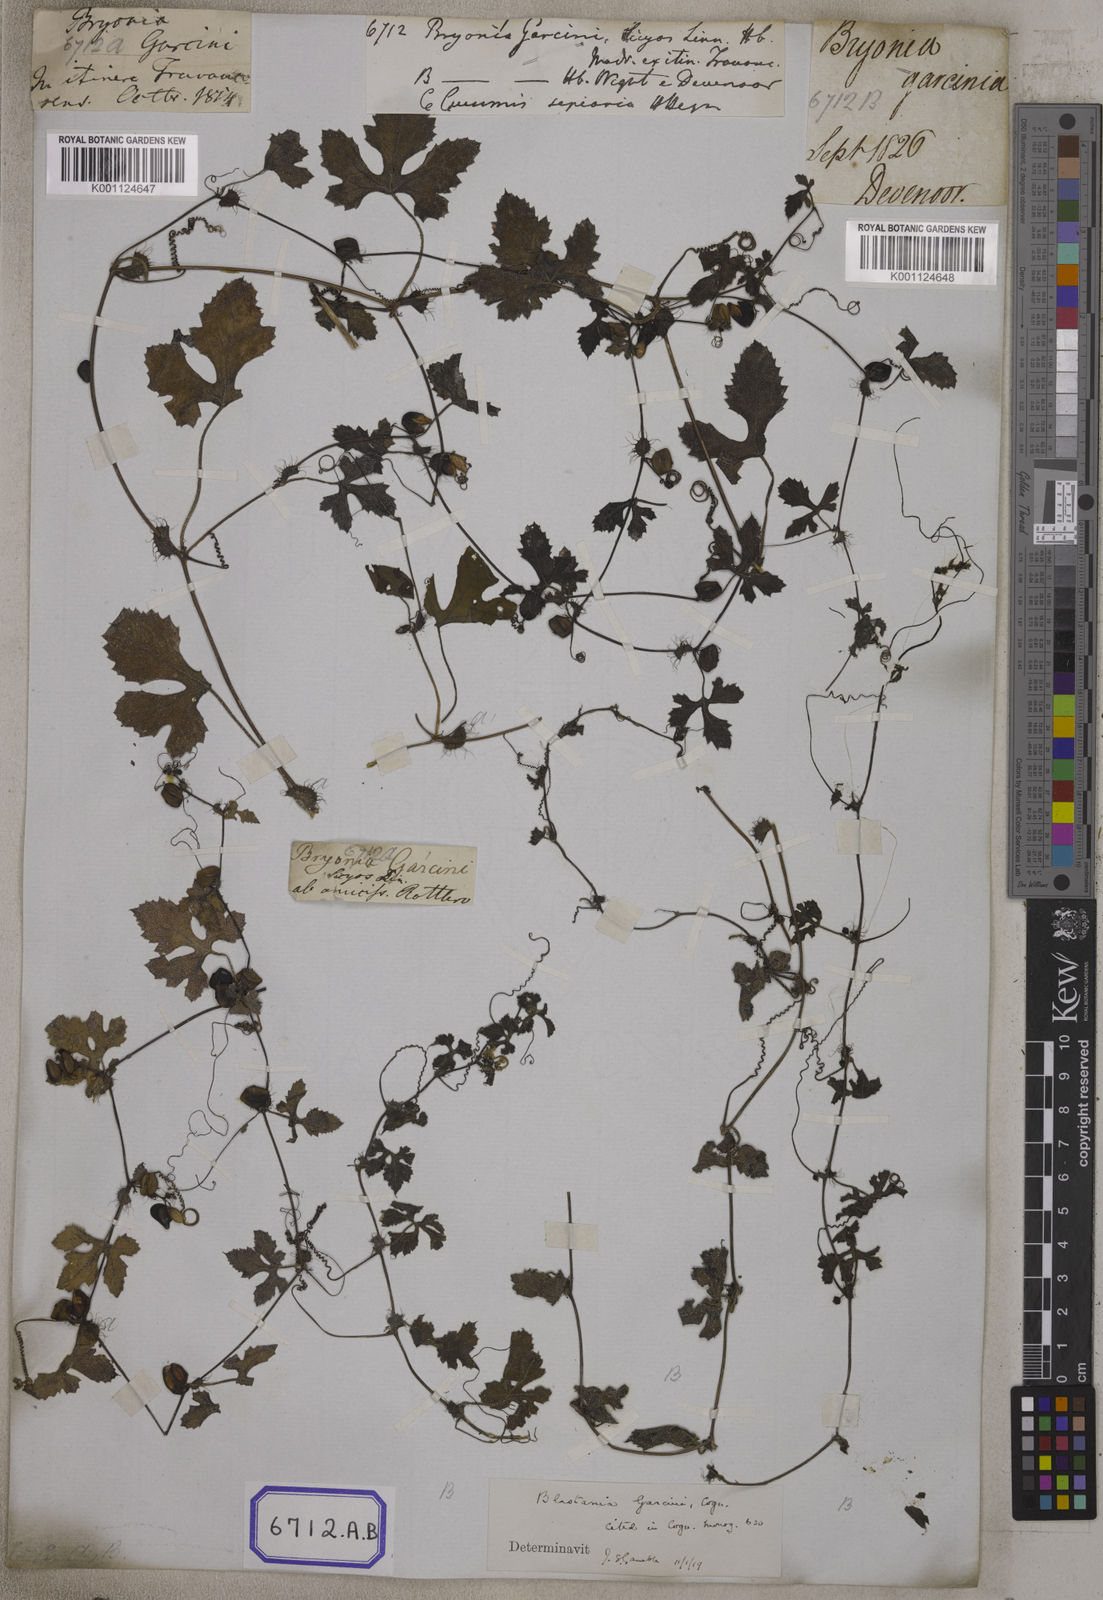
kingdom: Plantae
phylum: Tracheophyta
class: Magnoliopsida
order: Cucurbitales
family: Cucurbitaceae
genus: Blastania
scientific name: Blastania garcinii
